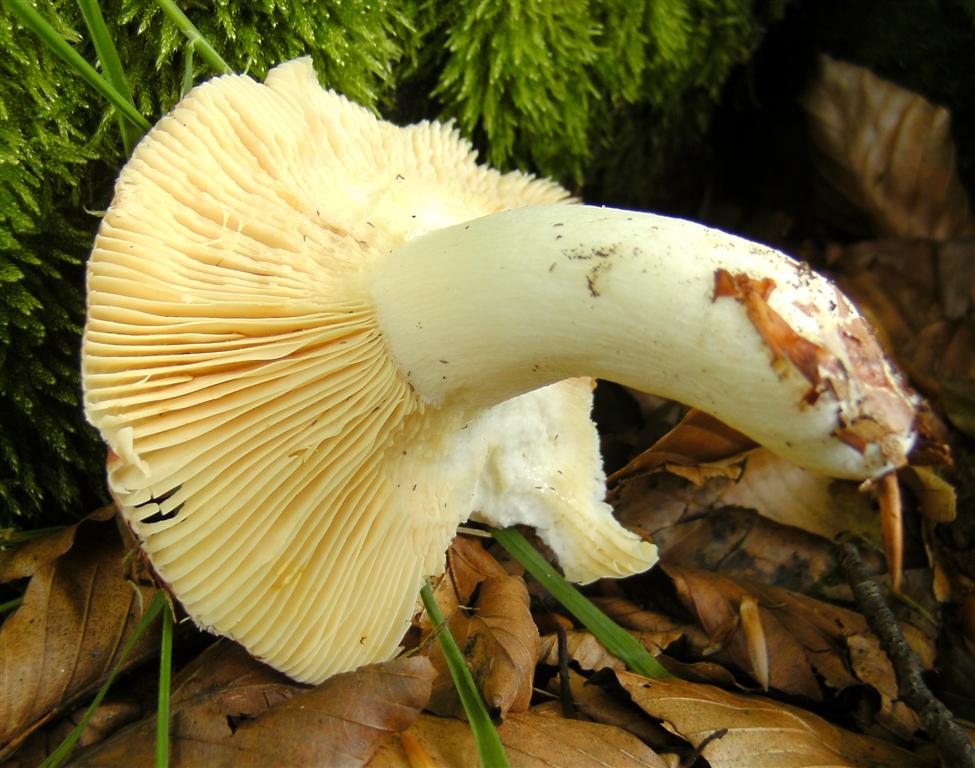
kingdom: Fungi
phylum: Basidiomycota
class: Agaricomycetes
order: Russulales
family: Russulaceae
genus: Russula
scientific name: Russula romellii
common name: romells skørhat
